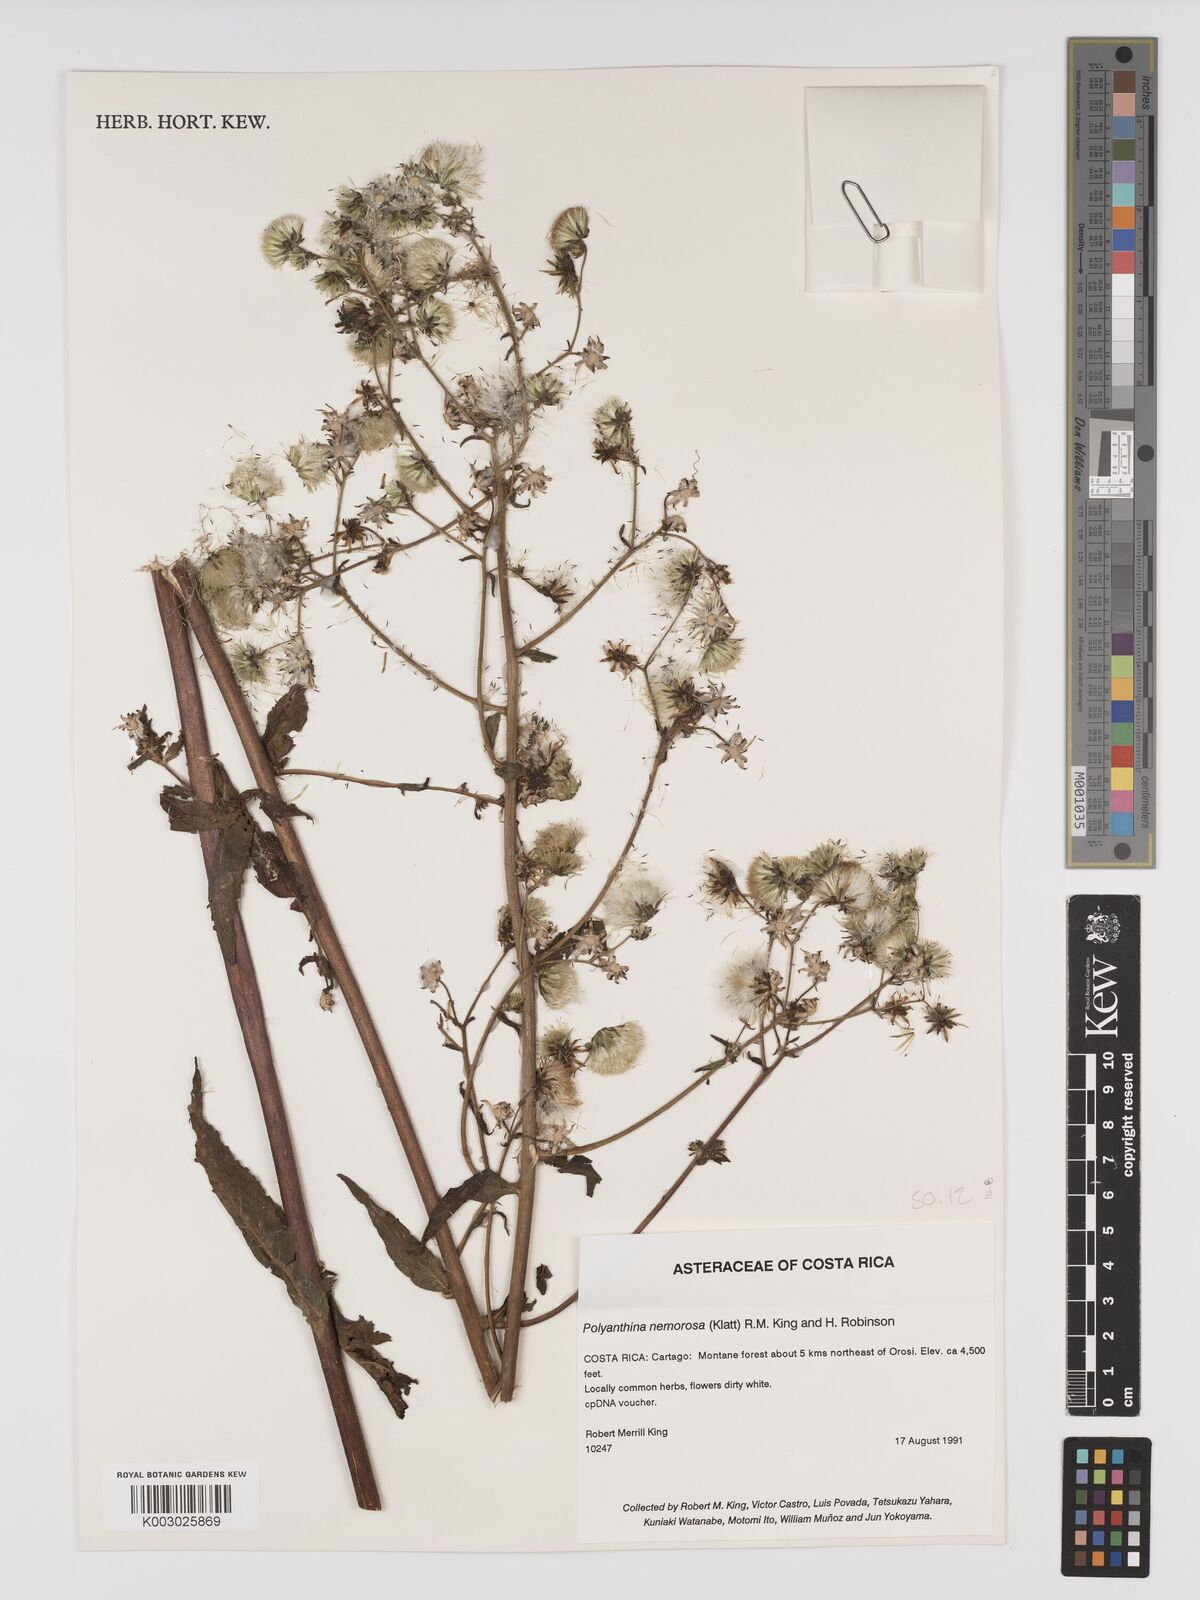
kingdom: Plantae
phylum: Tracheophyta
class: Magnoliopsida
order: Asterales
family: Asteraceae
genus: Polyanthina
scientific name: Polyanthina nemorosa
